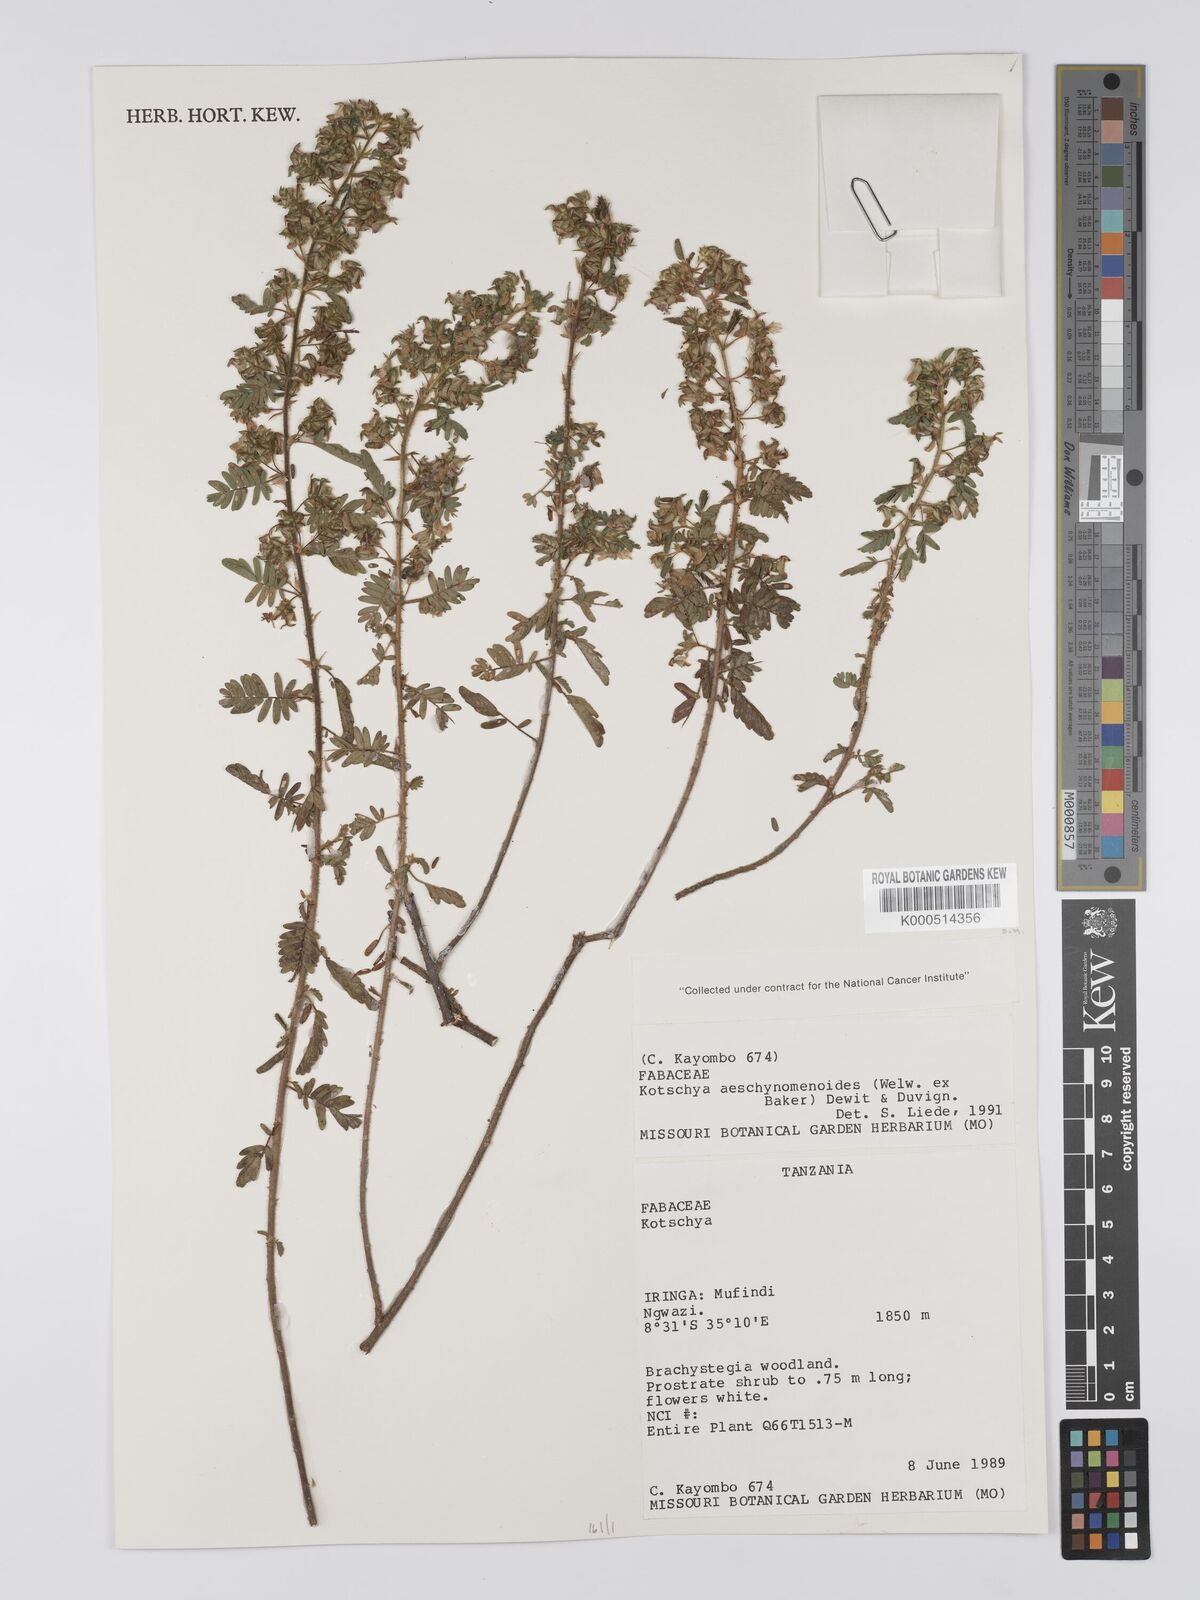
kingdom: Plantae
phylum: Tracheophyta
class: Magnoliopsida
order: Fabales
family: Fabaceae
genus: Kotschya
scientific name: Kotschya aeschynomenoides
